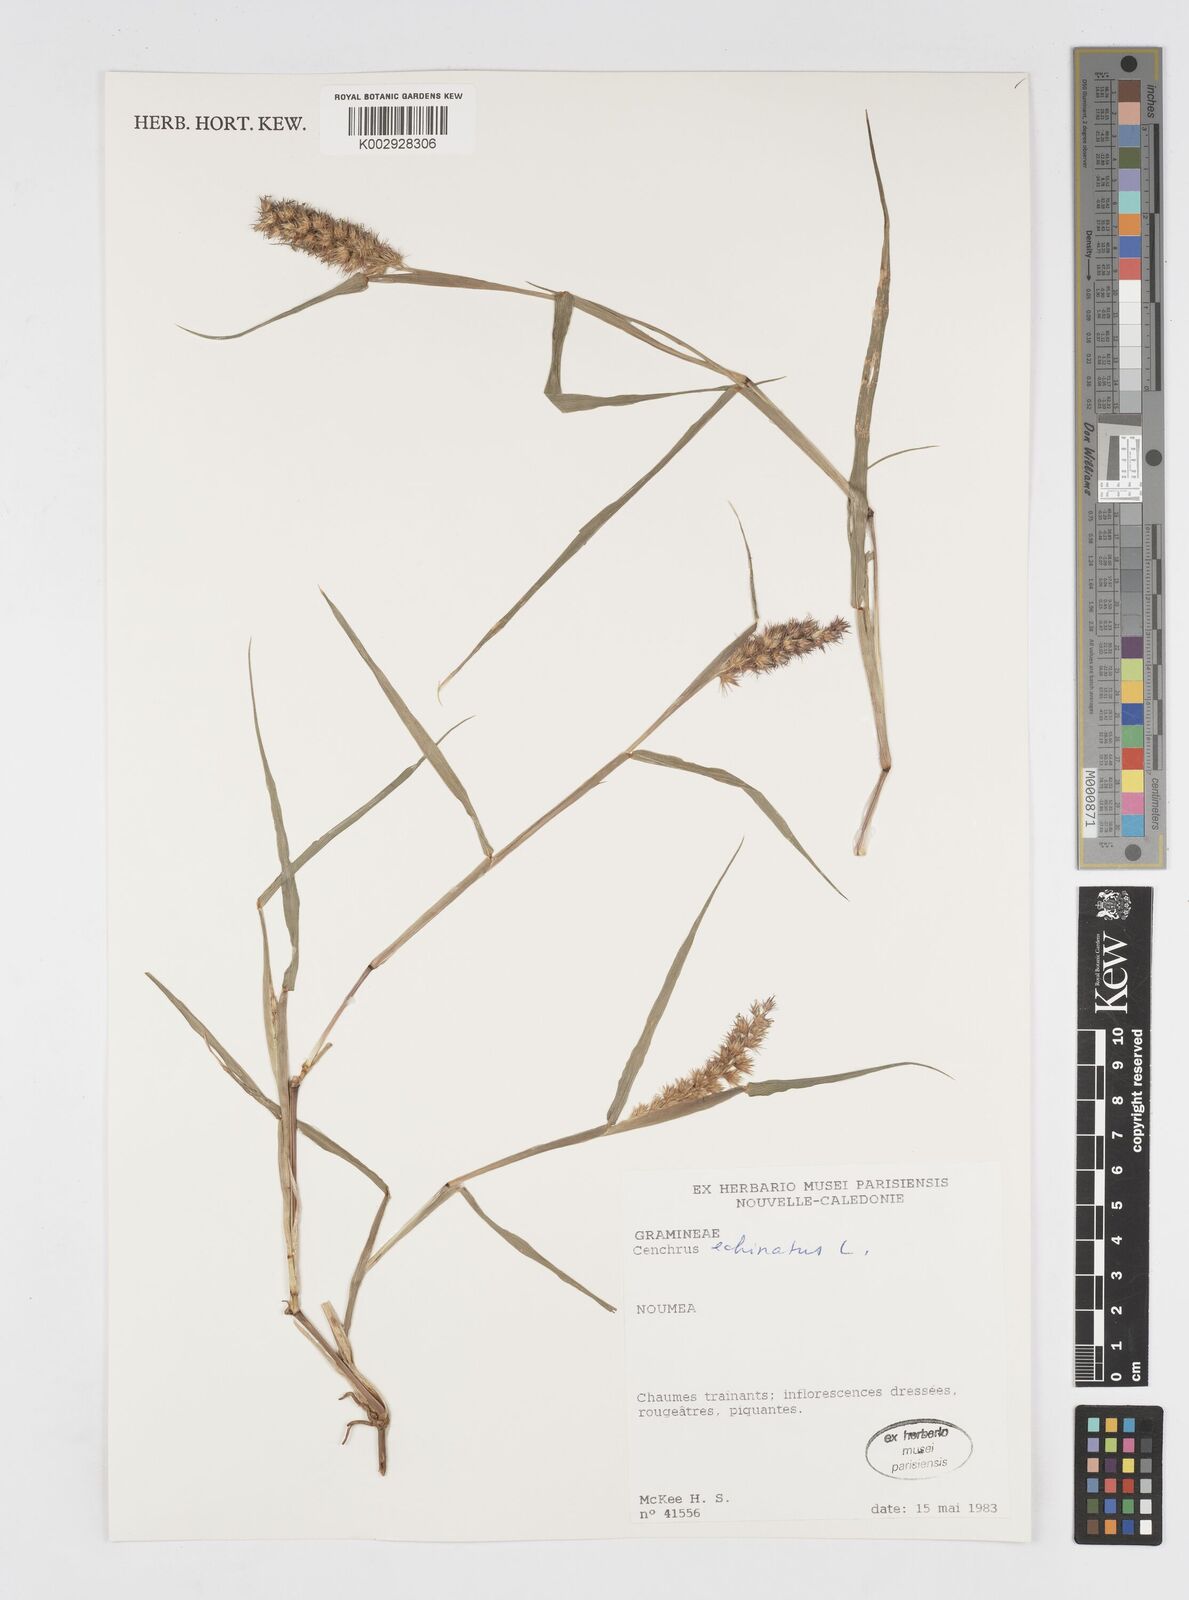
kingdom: Plantae
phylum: Tracheophyta
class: Liliopsida
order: Poales
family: Poaceae
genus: Cenchrus
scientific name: Cenchrus echinatus
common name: Southern sandbur
